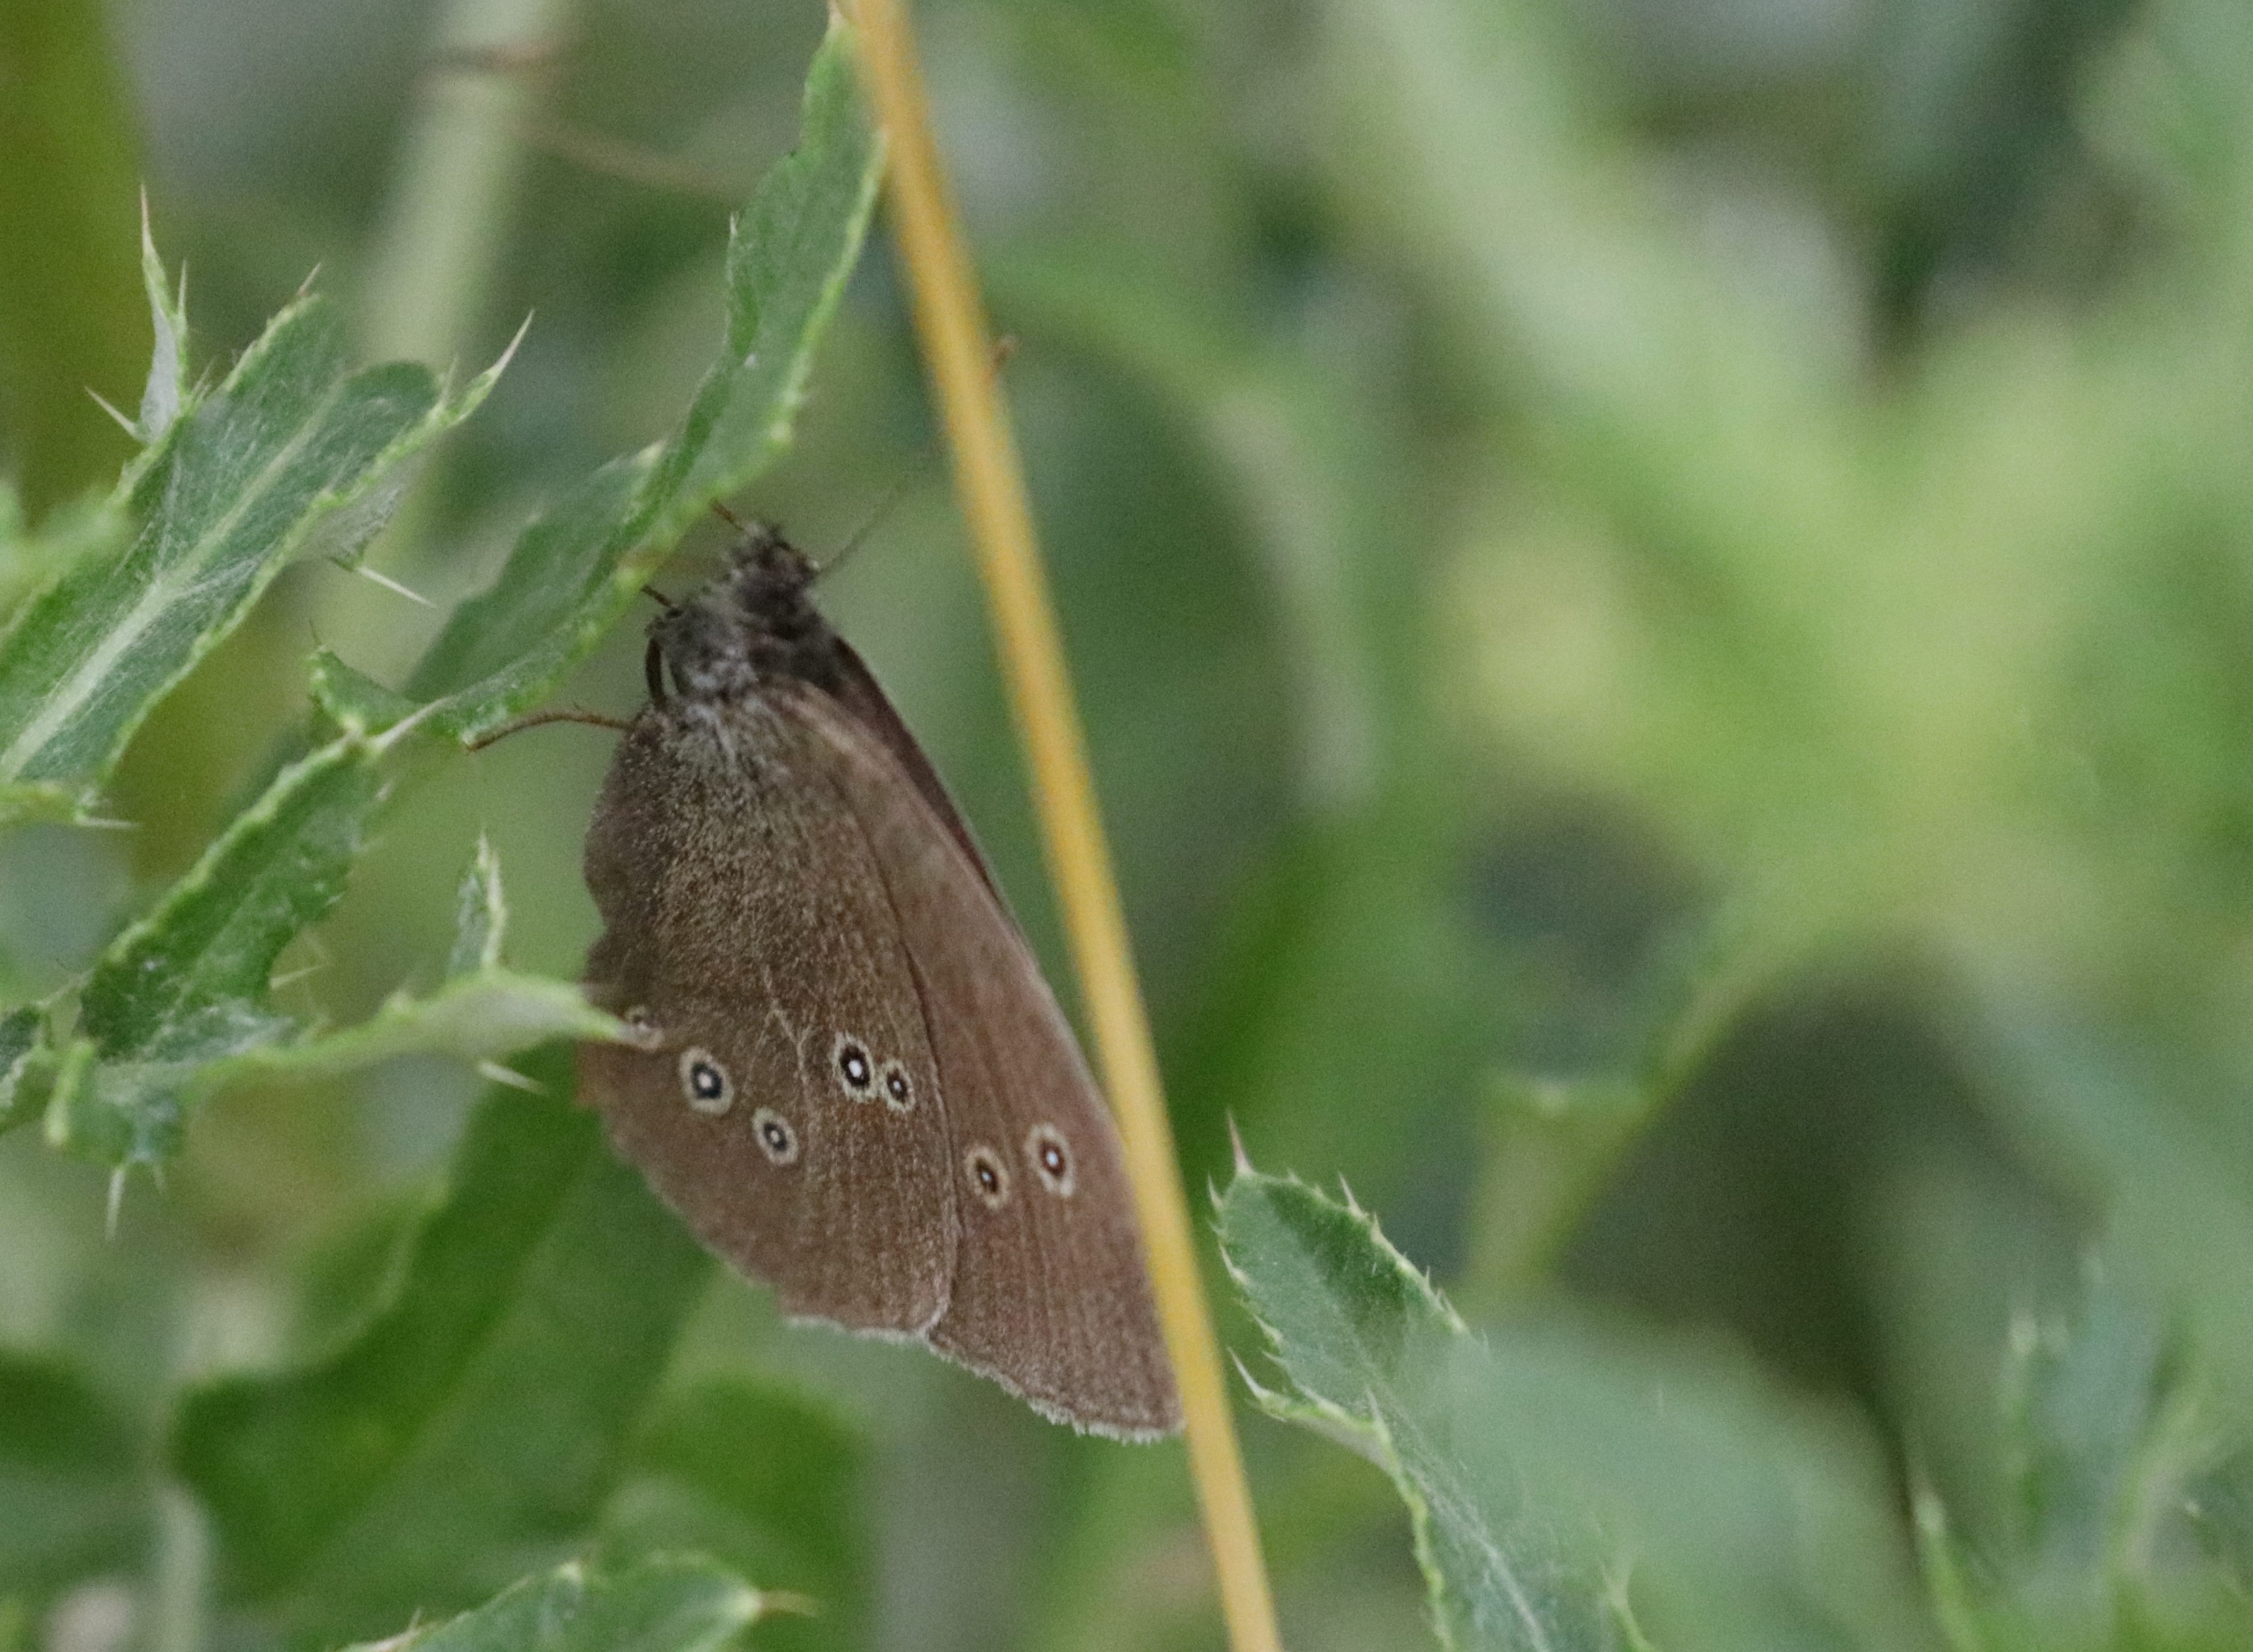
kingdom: Animalia
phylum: Arthropoda
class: Insecta
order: Lepidoptera
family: Nymphalidae
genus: Aphantopus
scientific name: Aphantopus hyperantus
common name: Engrandøje
